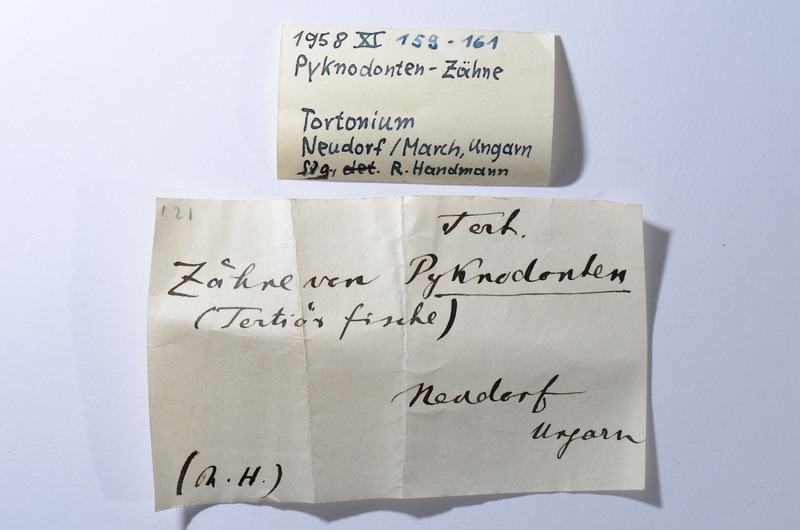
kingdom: Animalia
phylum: Chordata
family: Pycnodontidae
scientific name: Pycnodontidae
